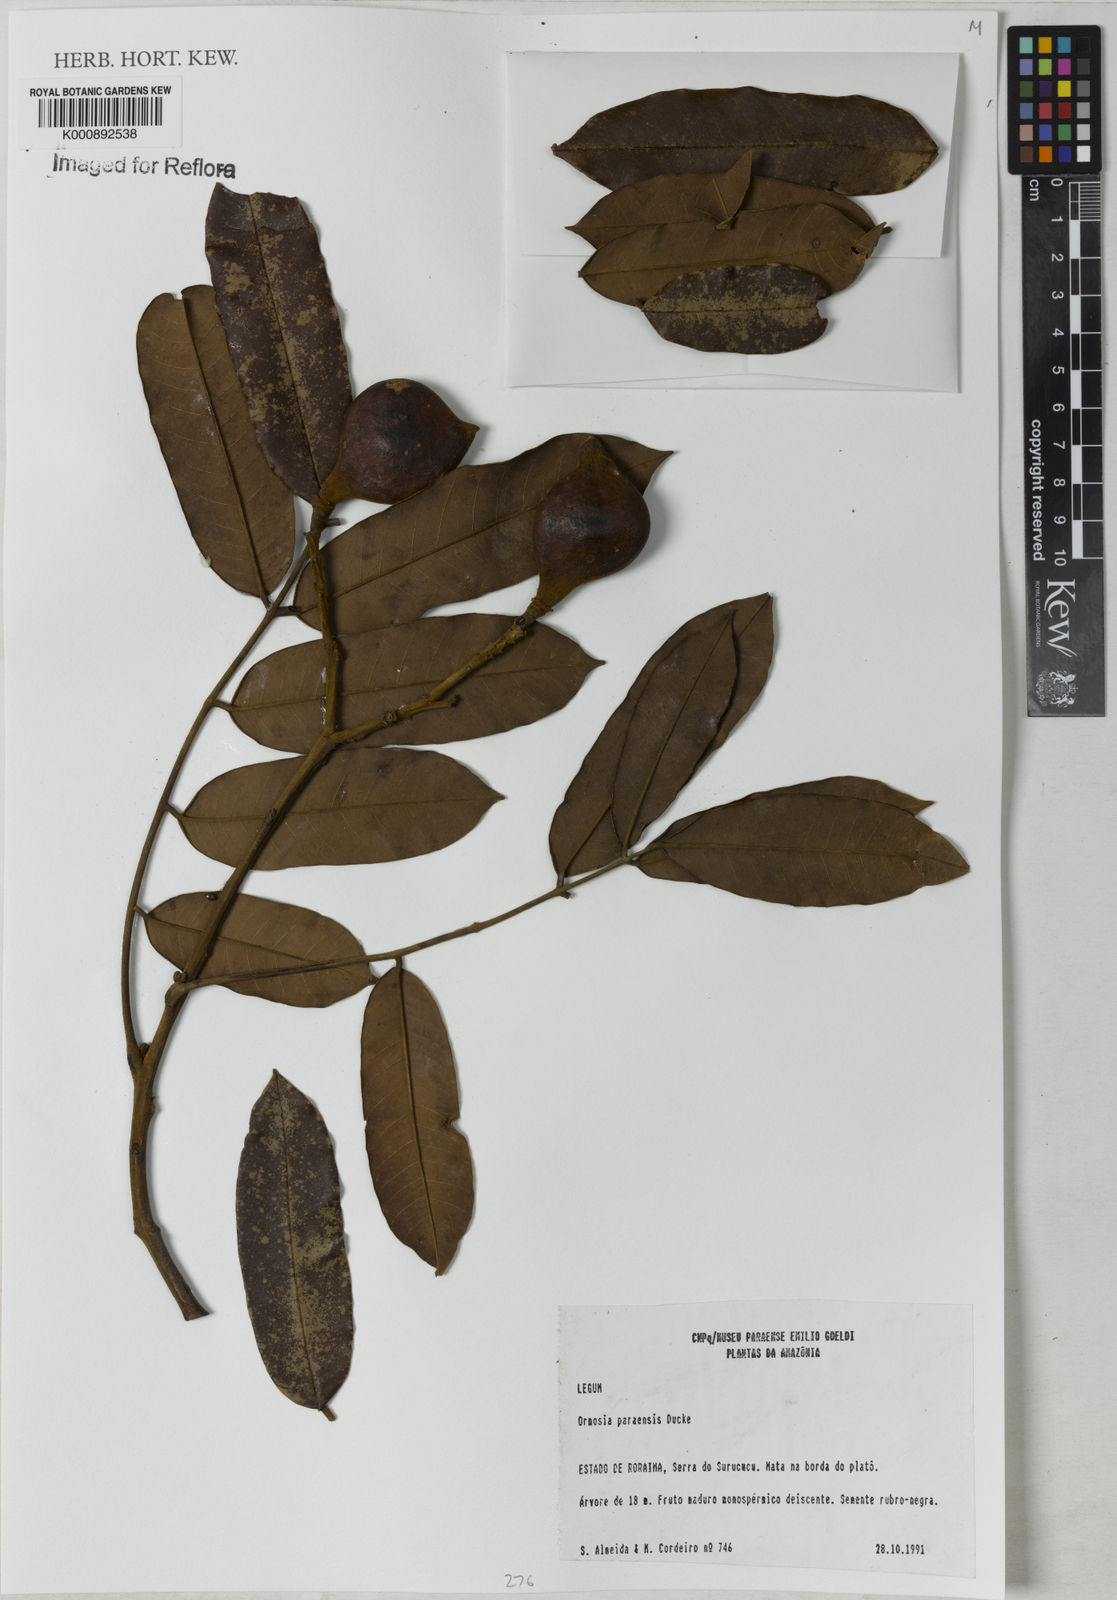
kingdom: Plantae
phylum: Tracheophyta
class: Magnoliopsida
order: Fabales
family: Fabaceae
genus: Ormosia
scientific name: Ormosia paraensis
